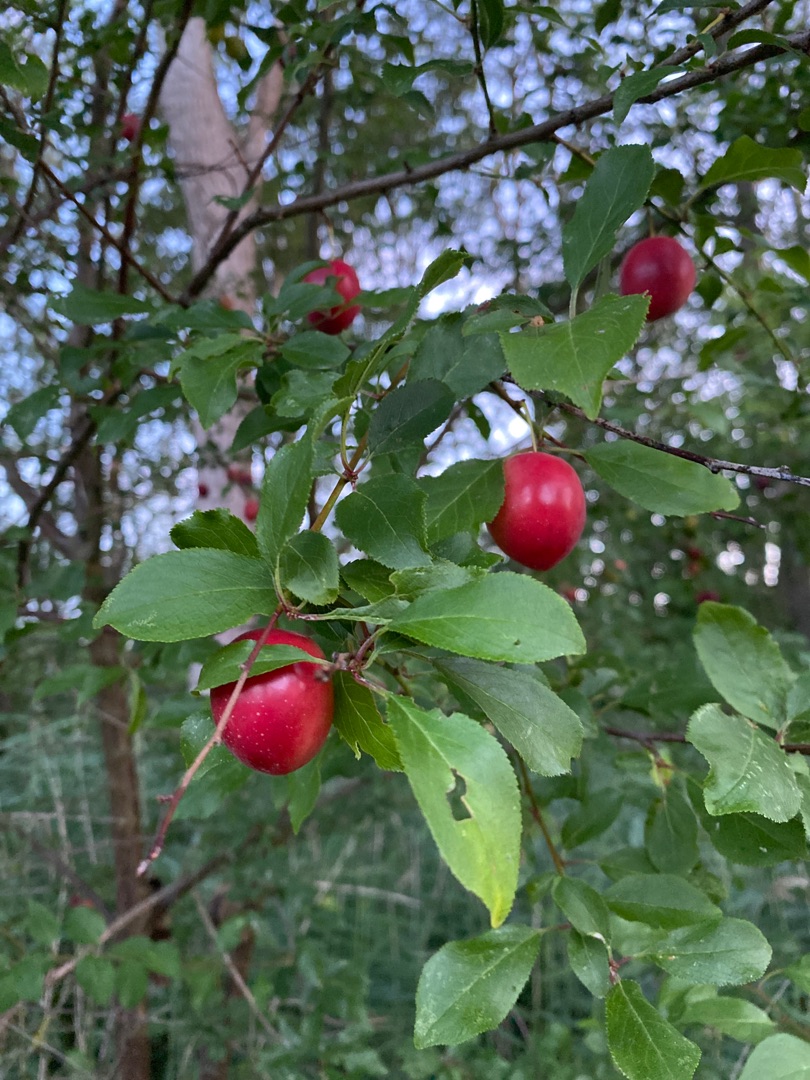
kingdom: Plantae
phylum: Tracheophyta
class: Magnoliopsida
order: Rosales
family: Rosaceae
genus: Prunus
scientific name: Prunus cerasifera
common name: Mirabel
